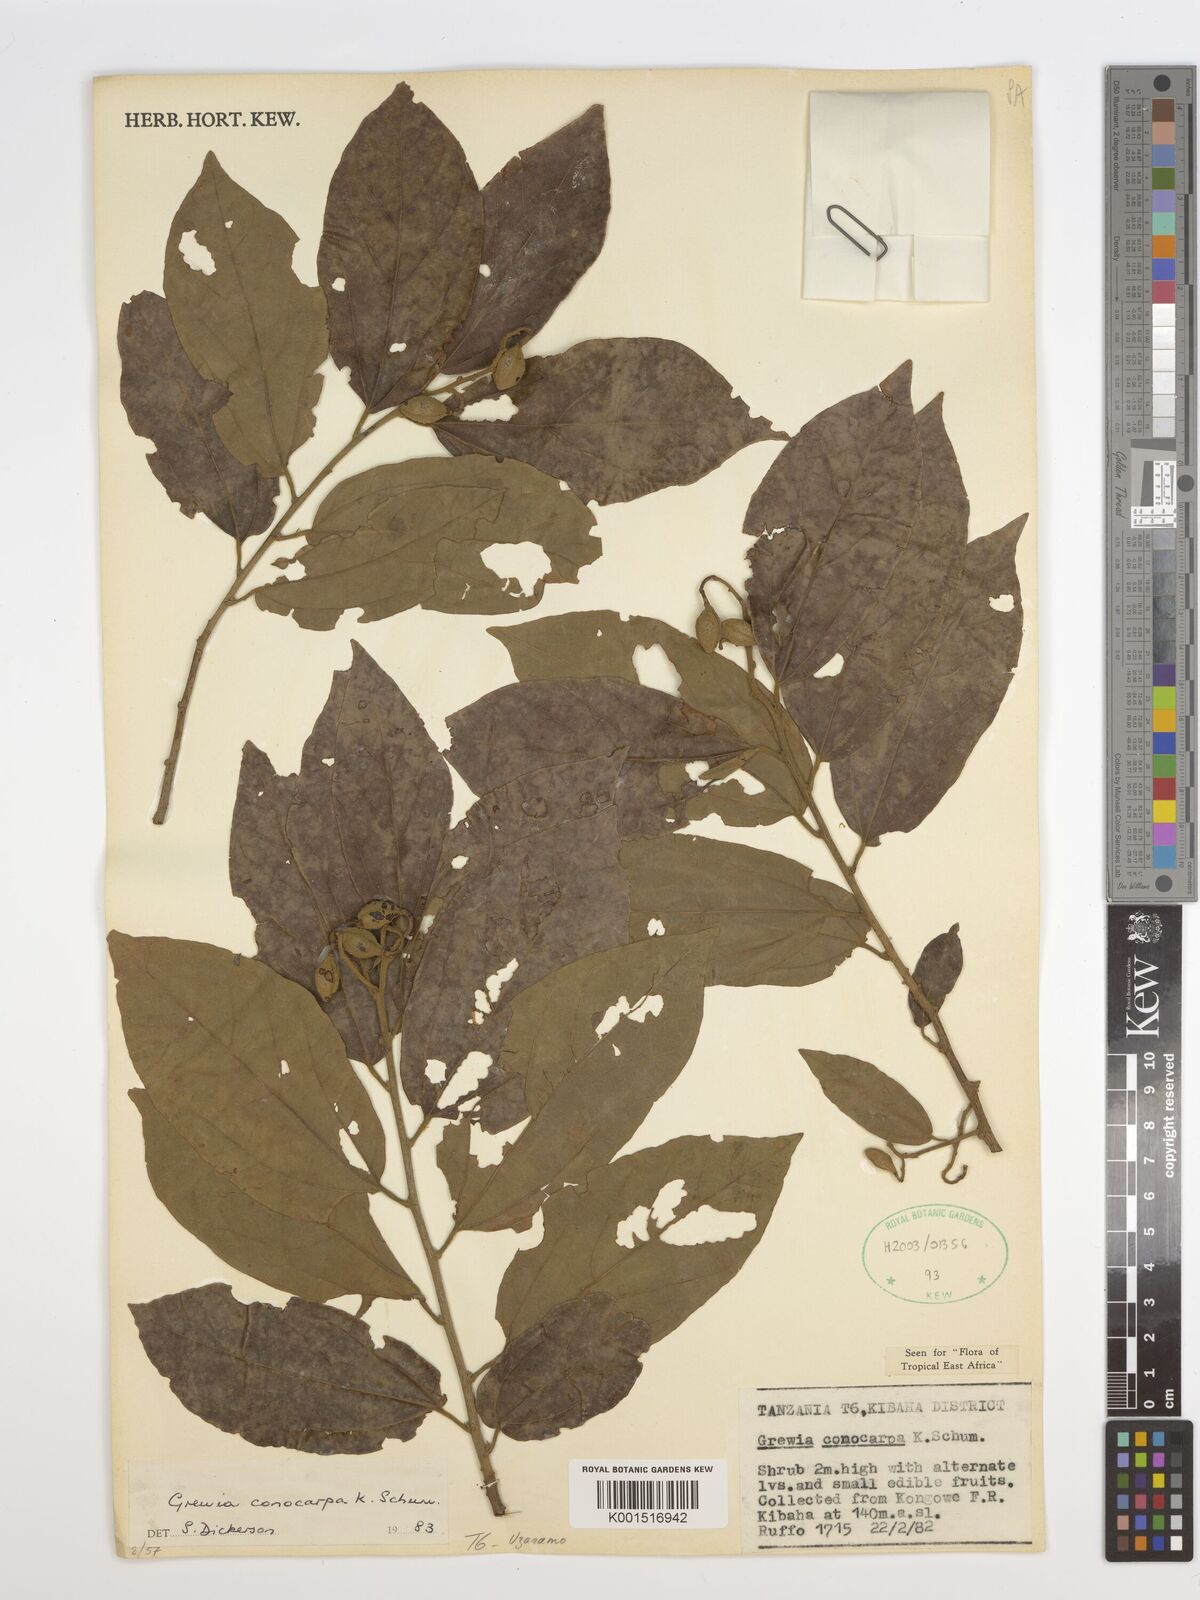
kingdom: Plantae
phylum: Tracheophyta
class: Magnoliopsida
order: Malvales
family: Malvaceae
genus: Microcos
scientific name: Microcos conocarpa
